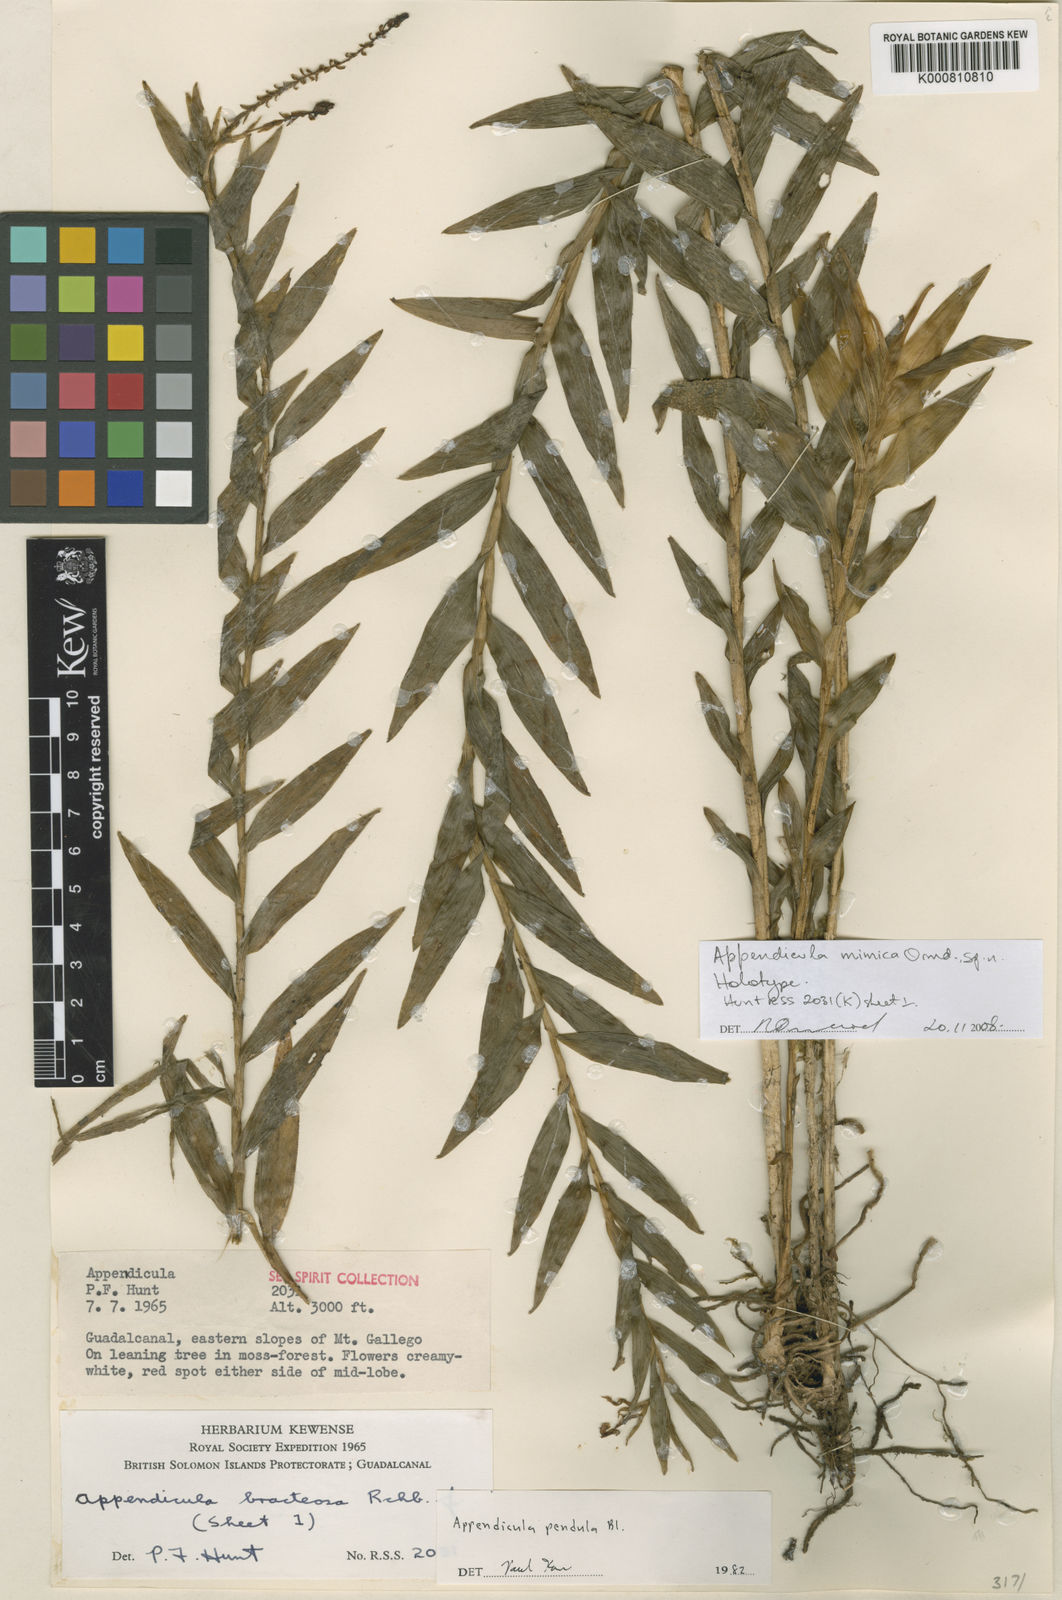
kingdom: Plantae
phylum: Tracheophyta
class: Liliopsida
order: Asparagales
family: Orchidaceae
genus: Appendicula
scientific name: Appendicula mimica
